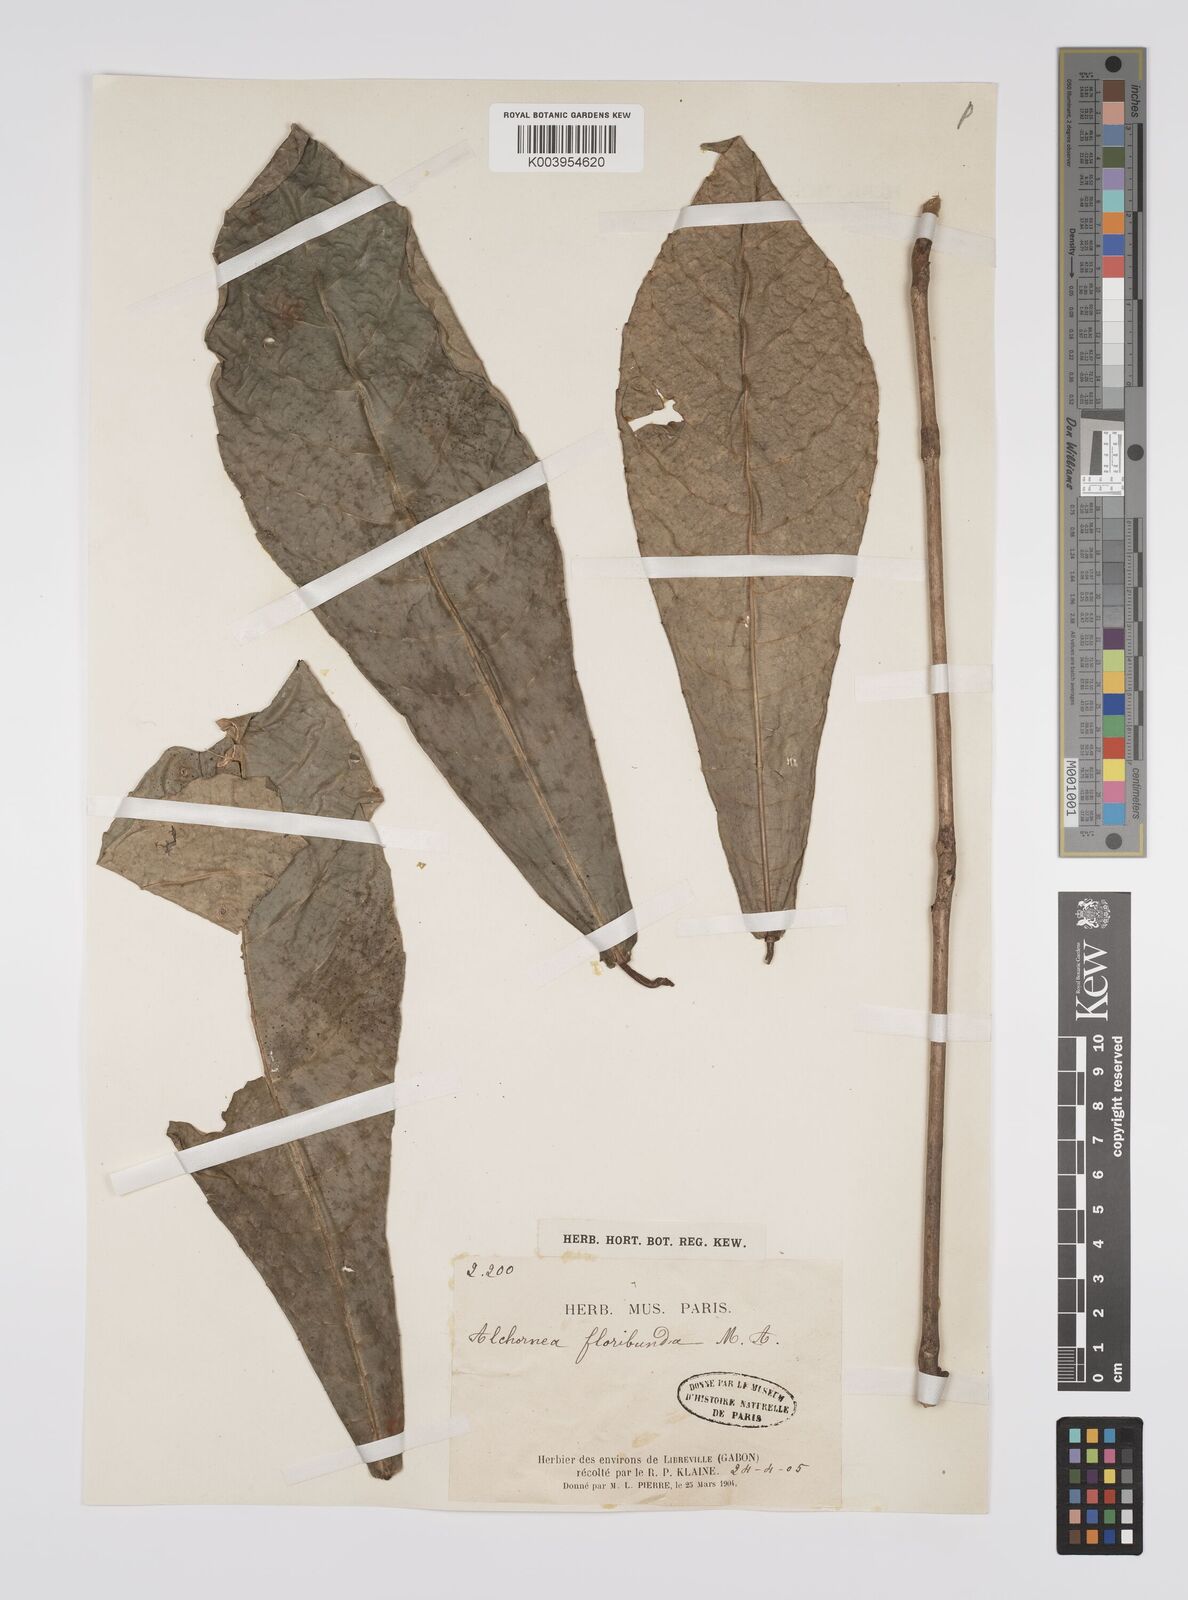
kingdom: Plantae
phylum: Tracheophyta
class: Magnoliopsida
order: Malpighiales
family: Euphorbiaceae
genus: Alchornea
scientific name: Alchornea floribunda
